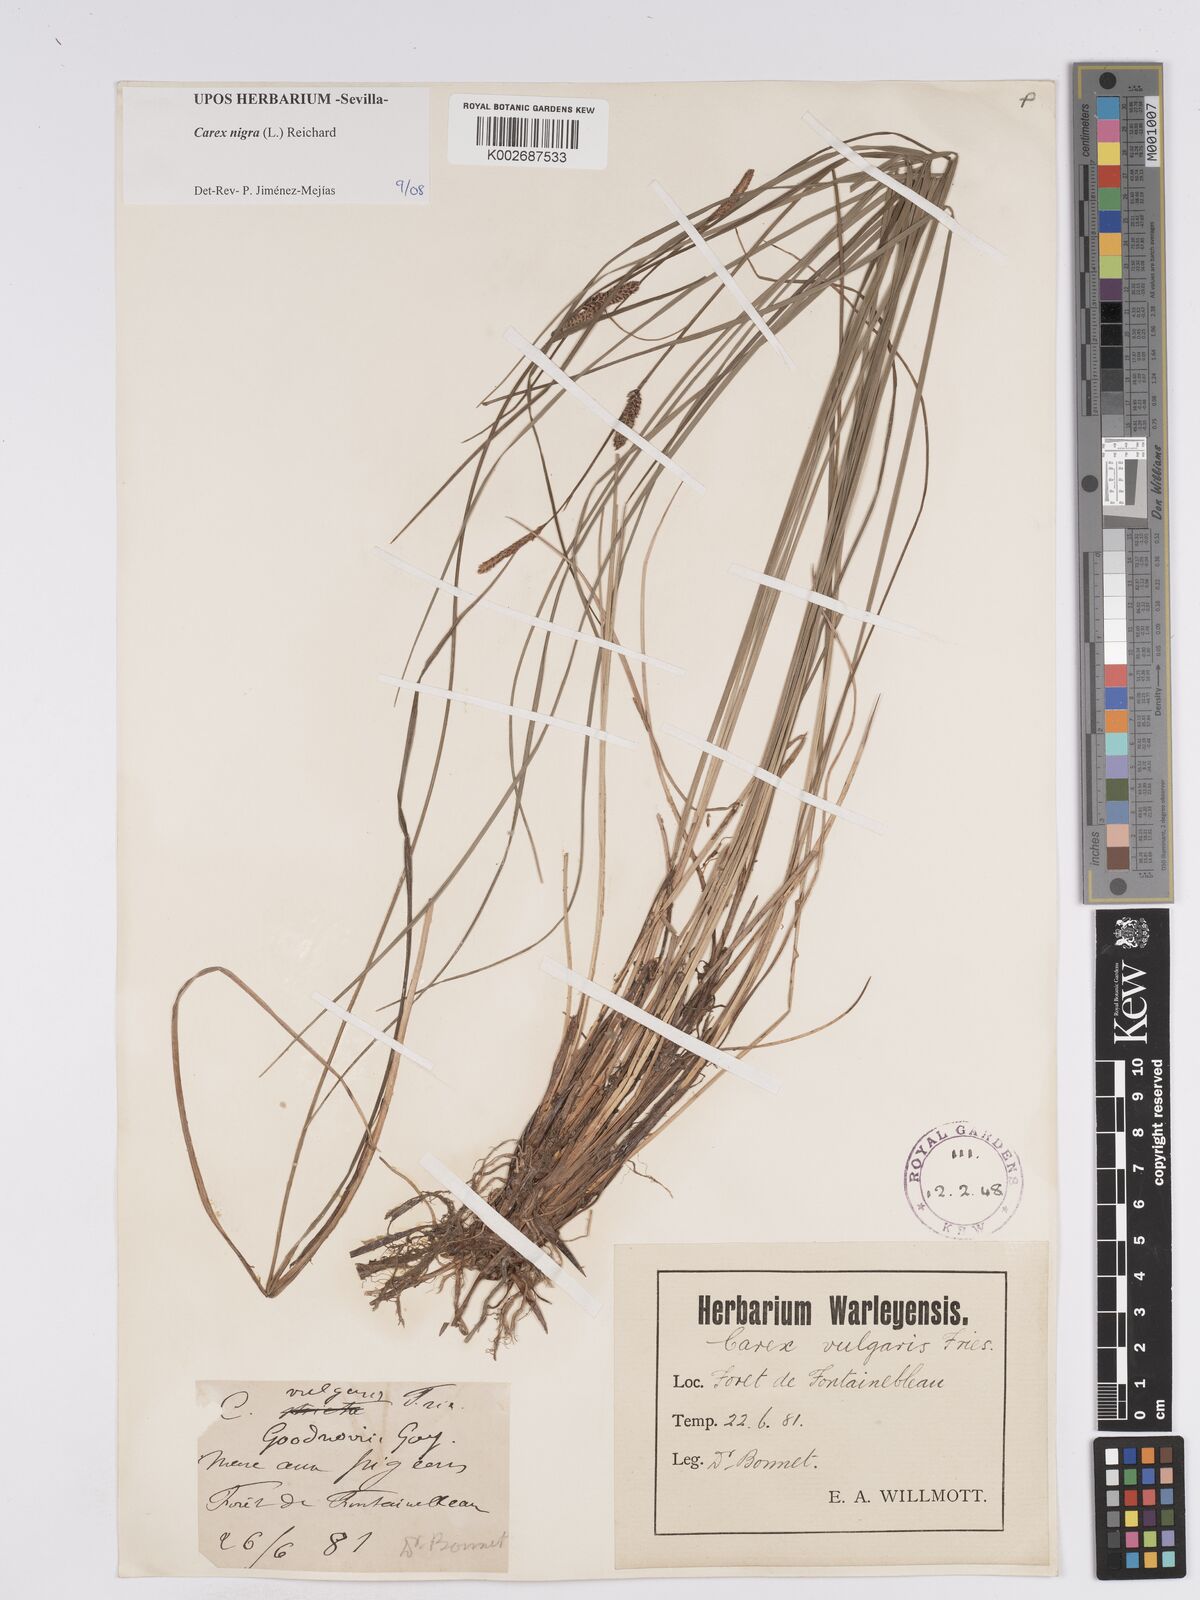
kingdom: Plantae
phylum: Tracheophyta
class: Liliopsida
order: Poales
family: Cyperaceae
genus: Carex
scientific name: Carex nigra
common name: Common sedge
